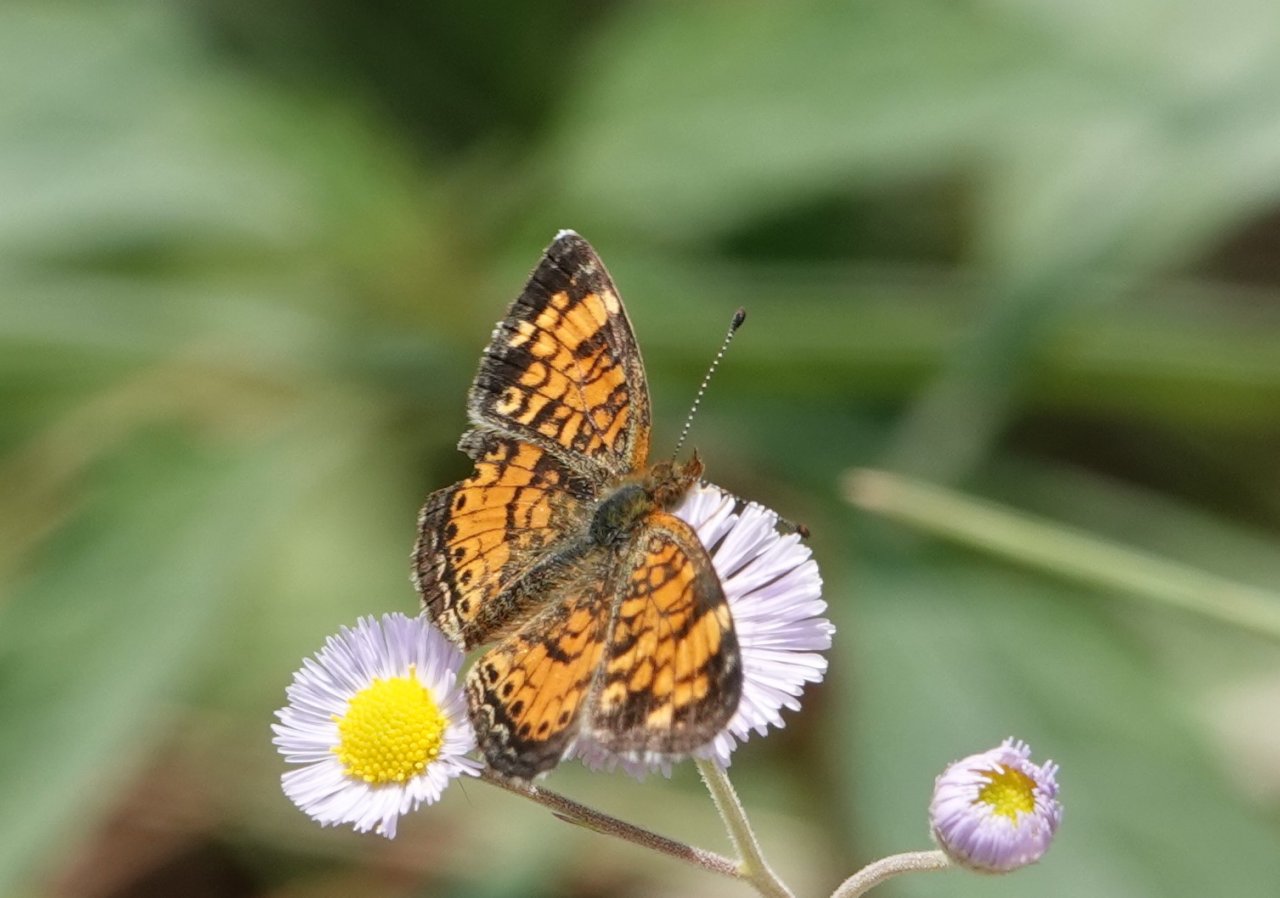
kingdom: Animalia
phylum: Arthropoda
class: Insecta
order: Lepidoptera
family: Nymphalidae
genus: Phyciodes
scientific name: Phyciodes tharos
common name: Pearl Crescent
